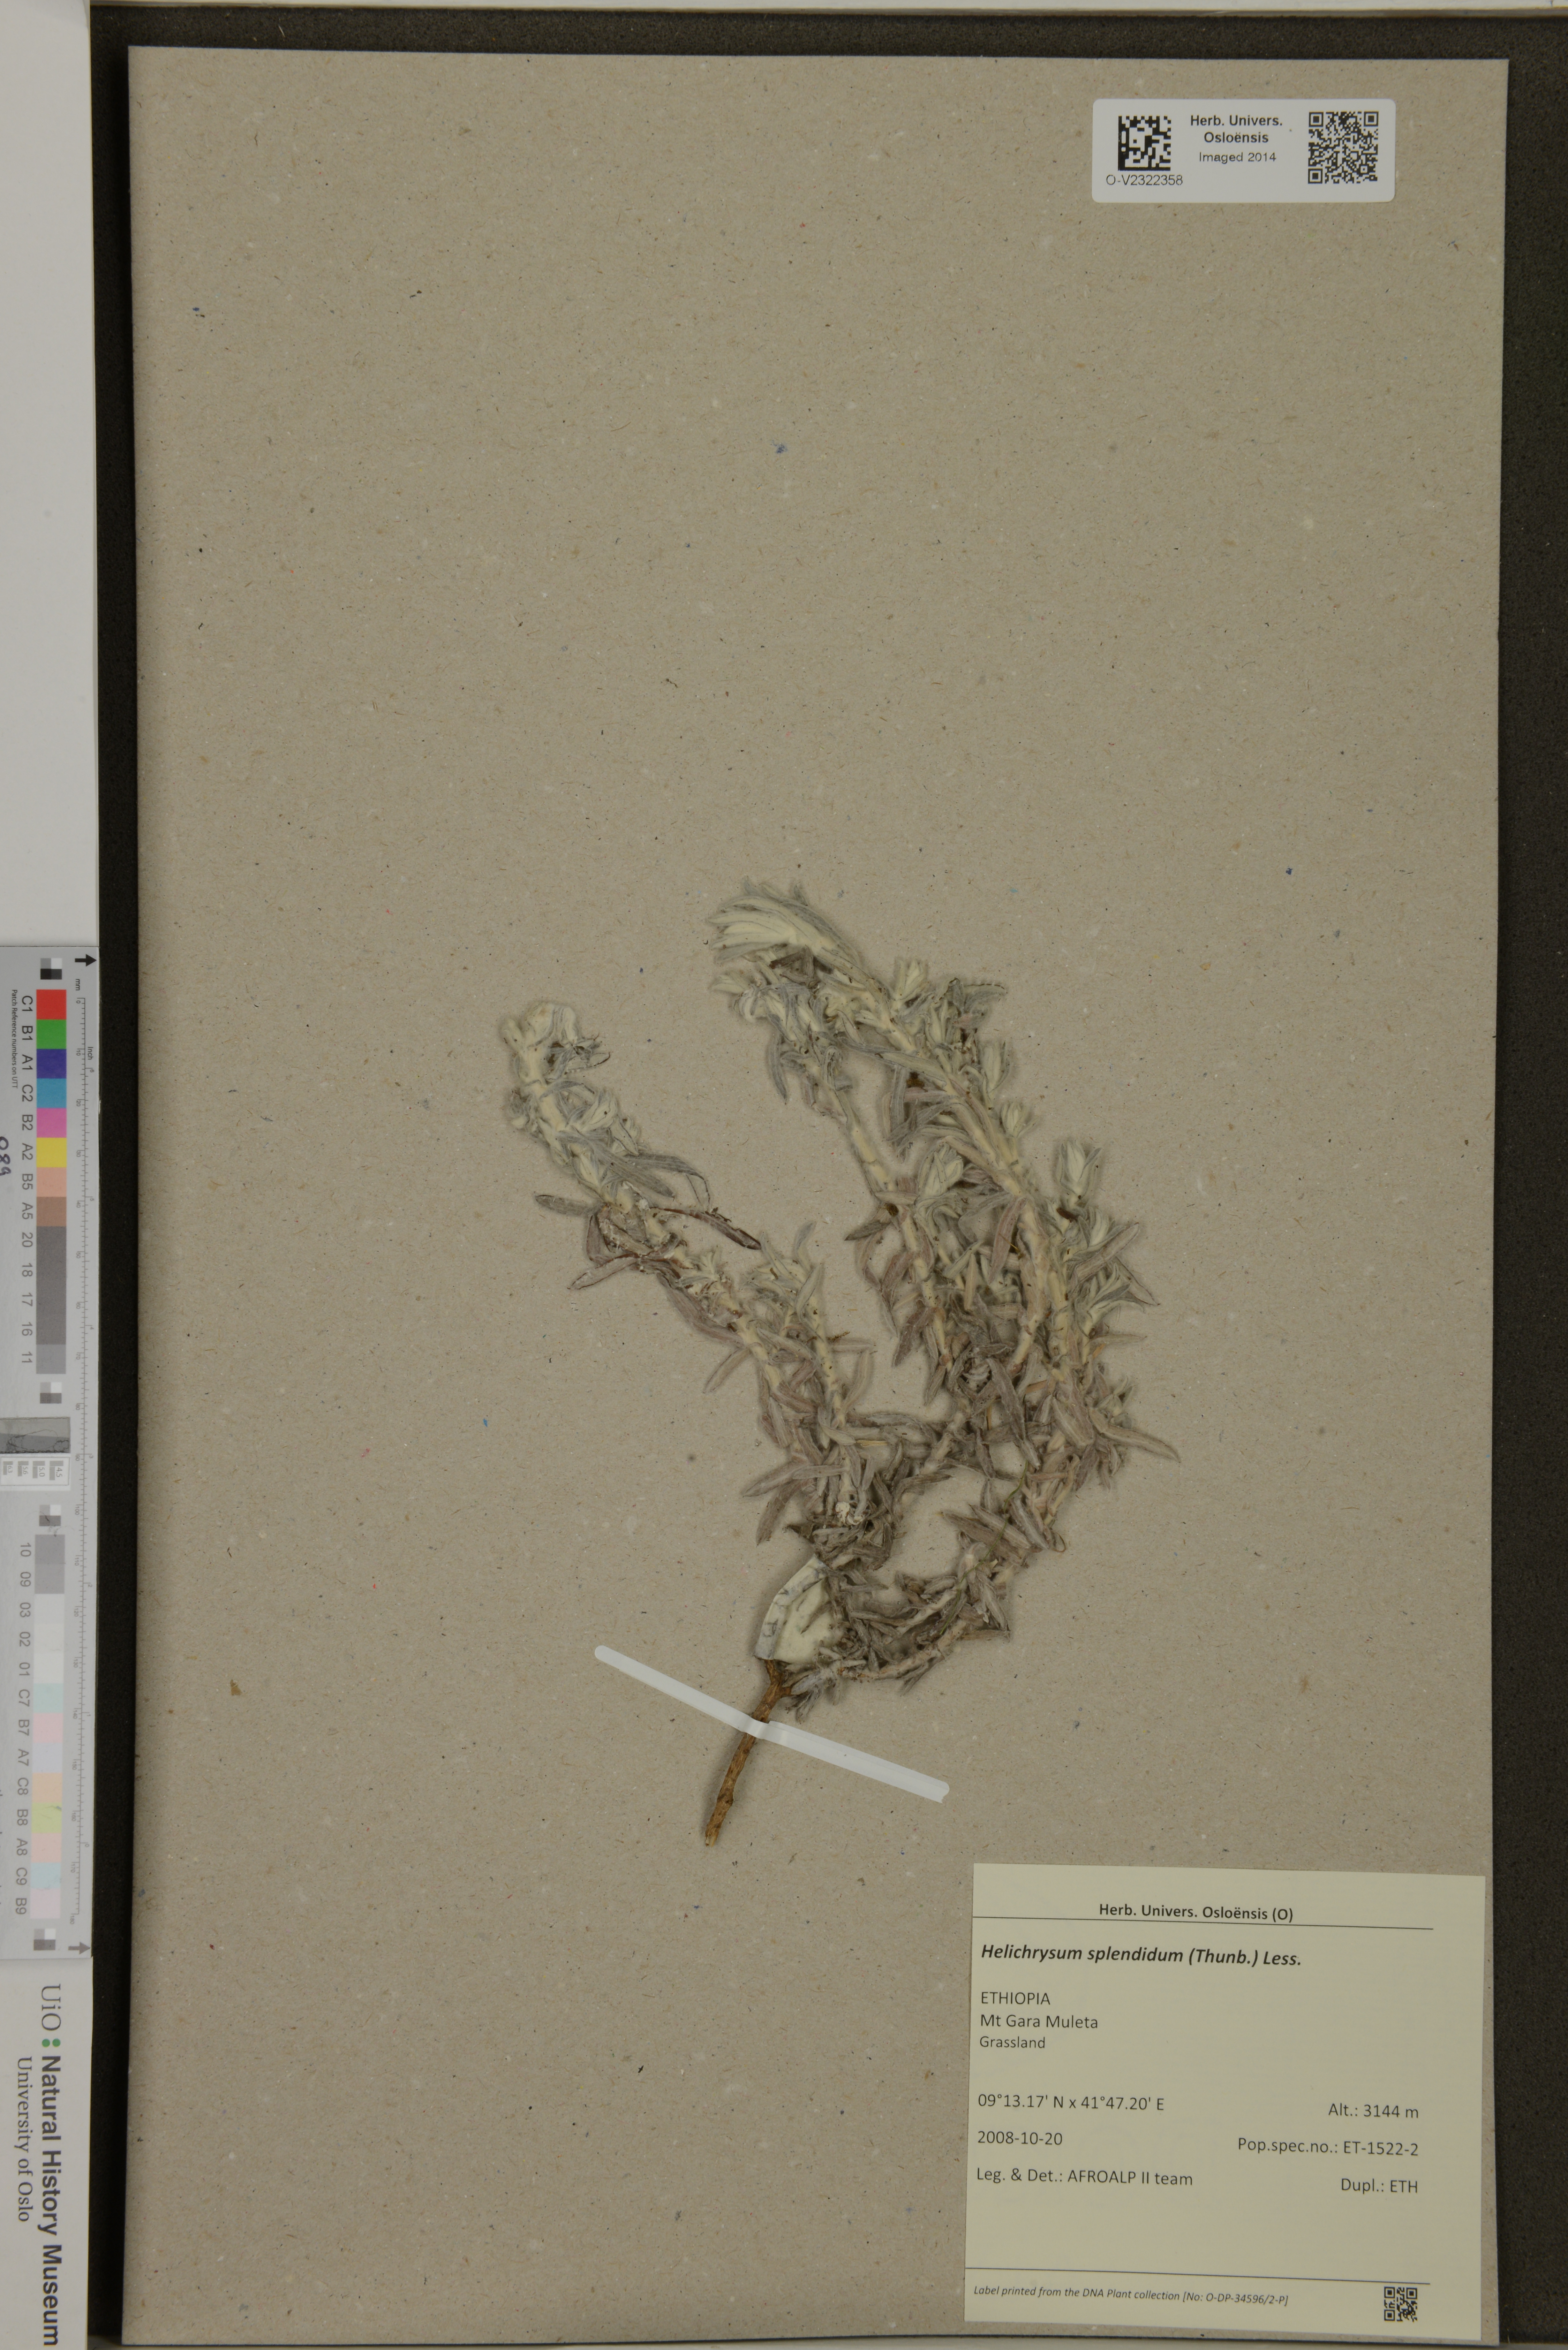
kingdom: Plantae
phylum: Tracheophyta
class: Magnoliopsida
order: Asterales
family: Asteraceae
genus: Helichrysum
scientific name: Helichrysum splendidum
